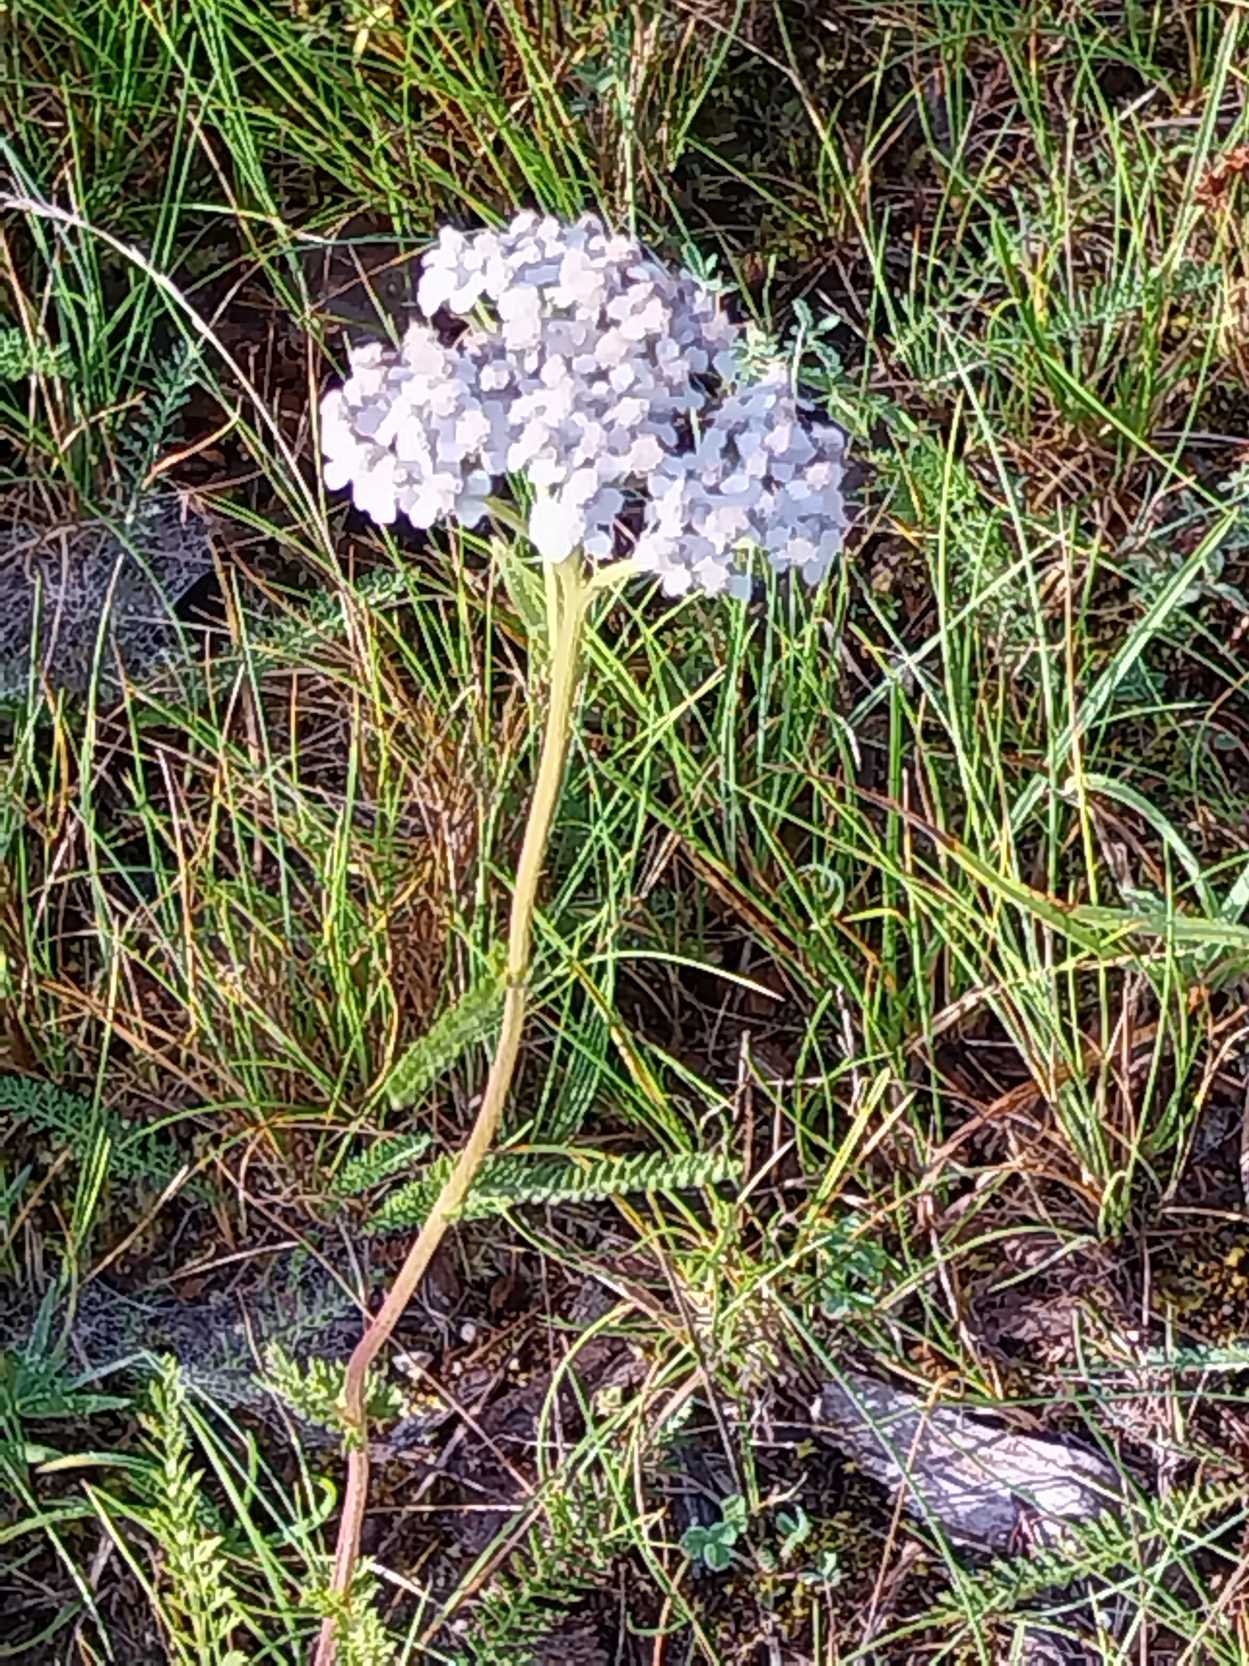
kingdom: Plantae
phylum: Tracheophyta
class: Magnoliopsida
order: Asterales
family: Asteraceae
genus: Achillea
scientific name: Achillea millefolium
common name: Almindelig røllike
